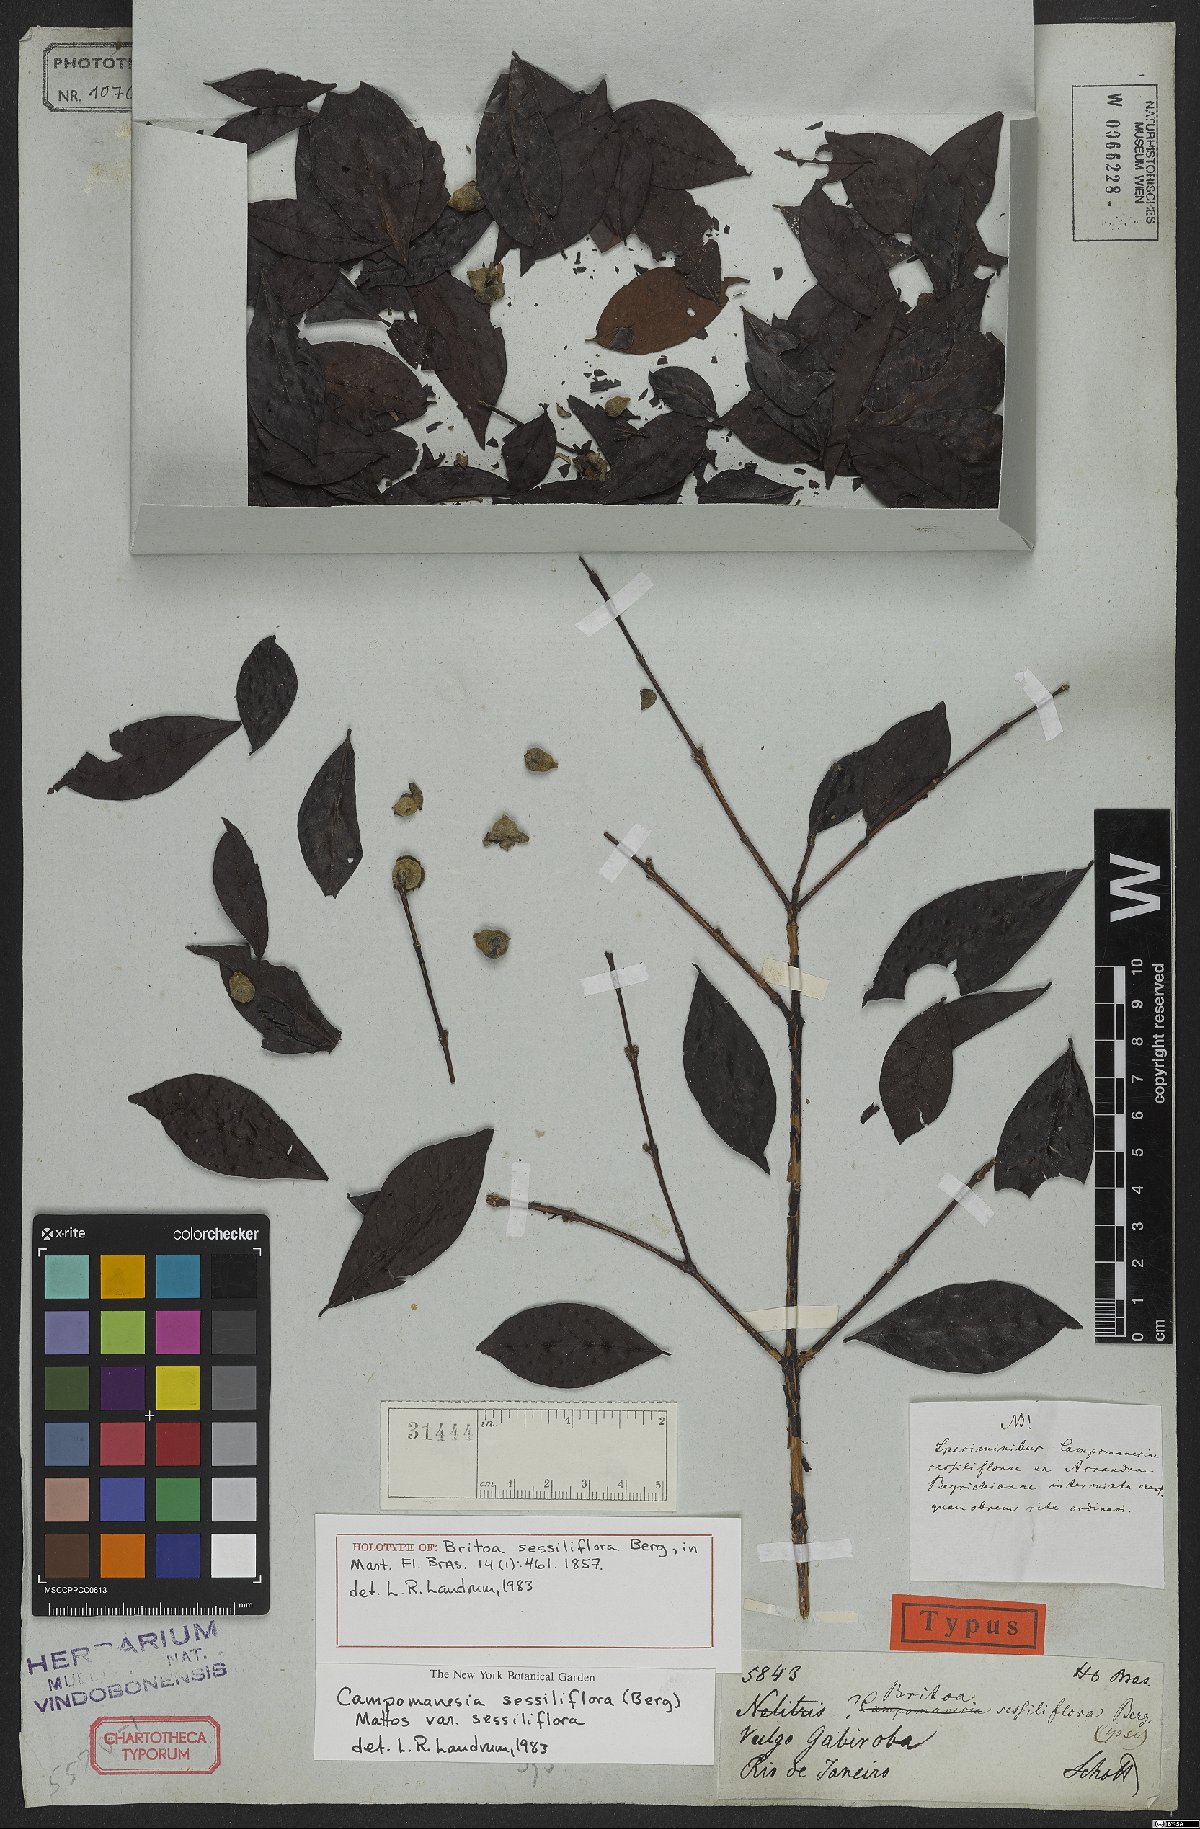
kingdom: Plantae
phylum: Tracheophyta
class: Magnoliopsida
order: Myrtales
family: Myrtaceae
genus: Campomanesia
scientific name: Campomanesia sessiliflora
